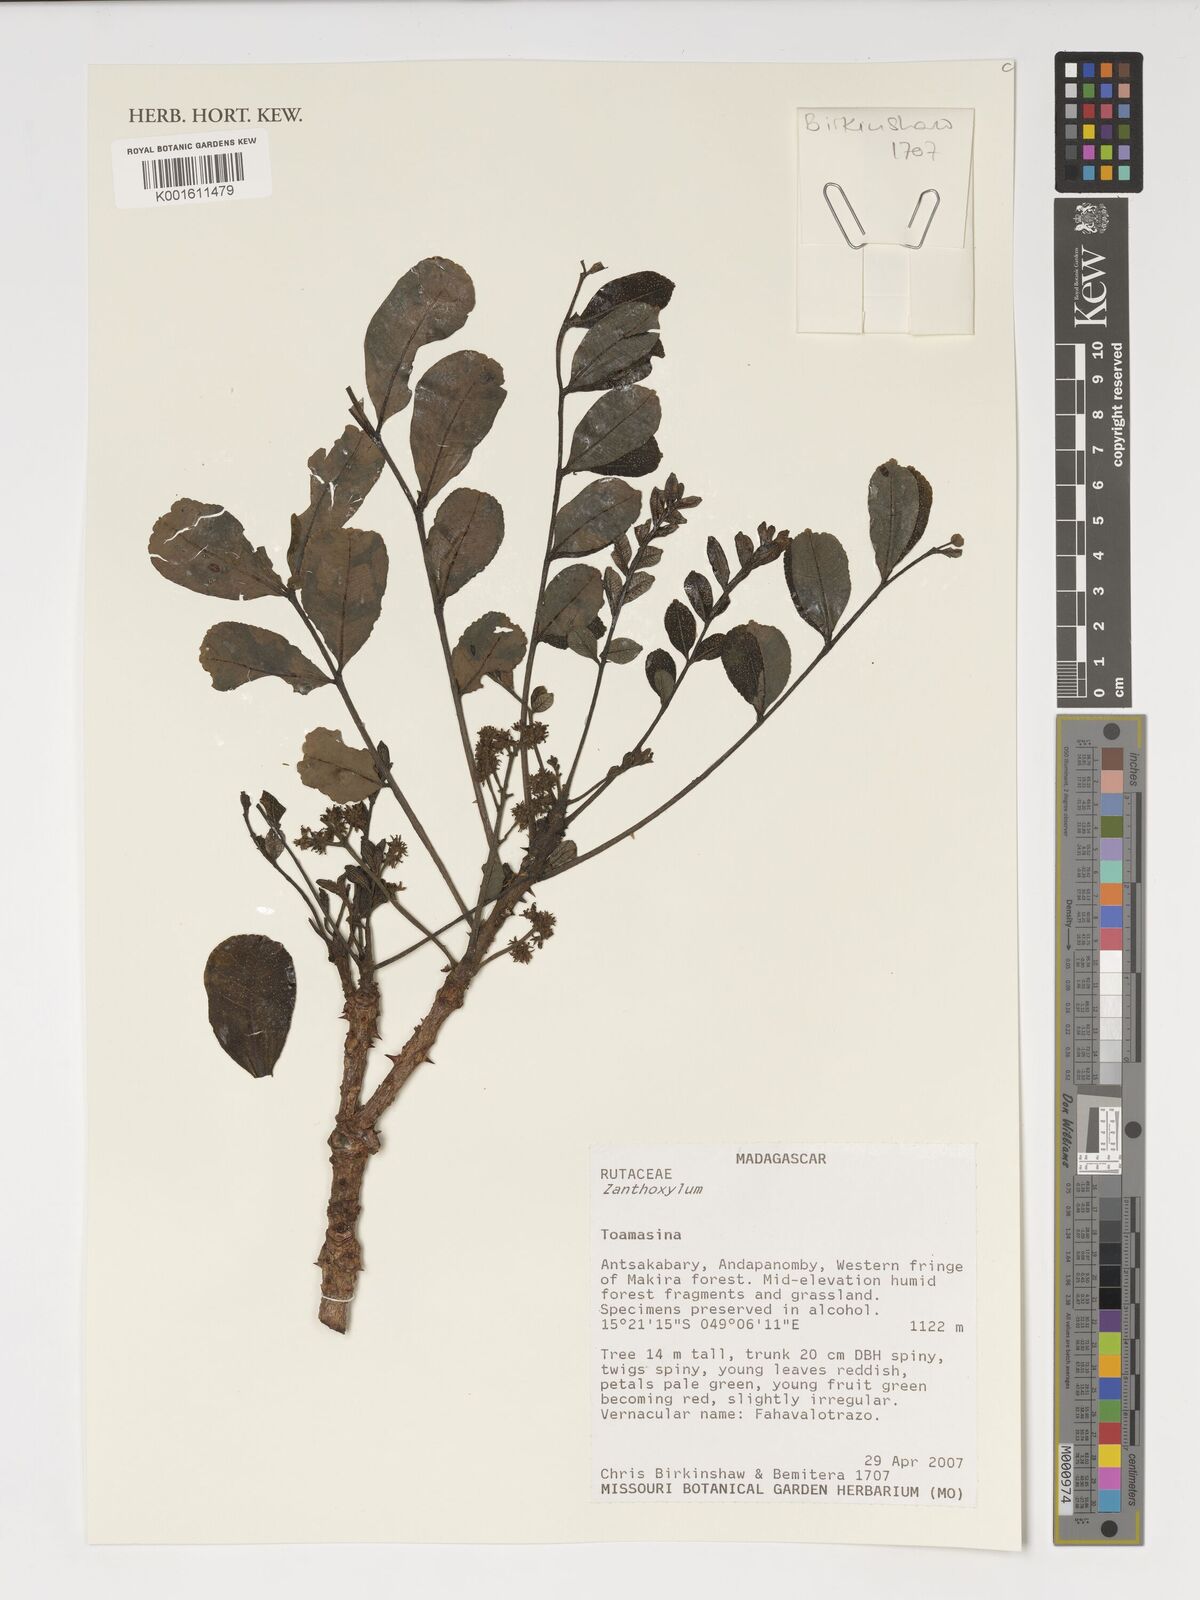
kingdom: Plantae
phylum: Tracheophyta
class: Magnoliopsida
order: Sapindales
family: Rutaceae
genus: Zanthoxylum
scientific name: Zanthoxylum
